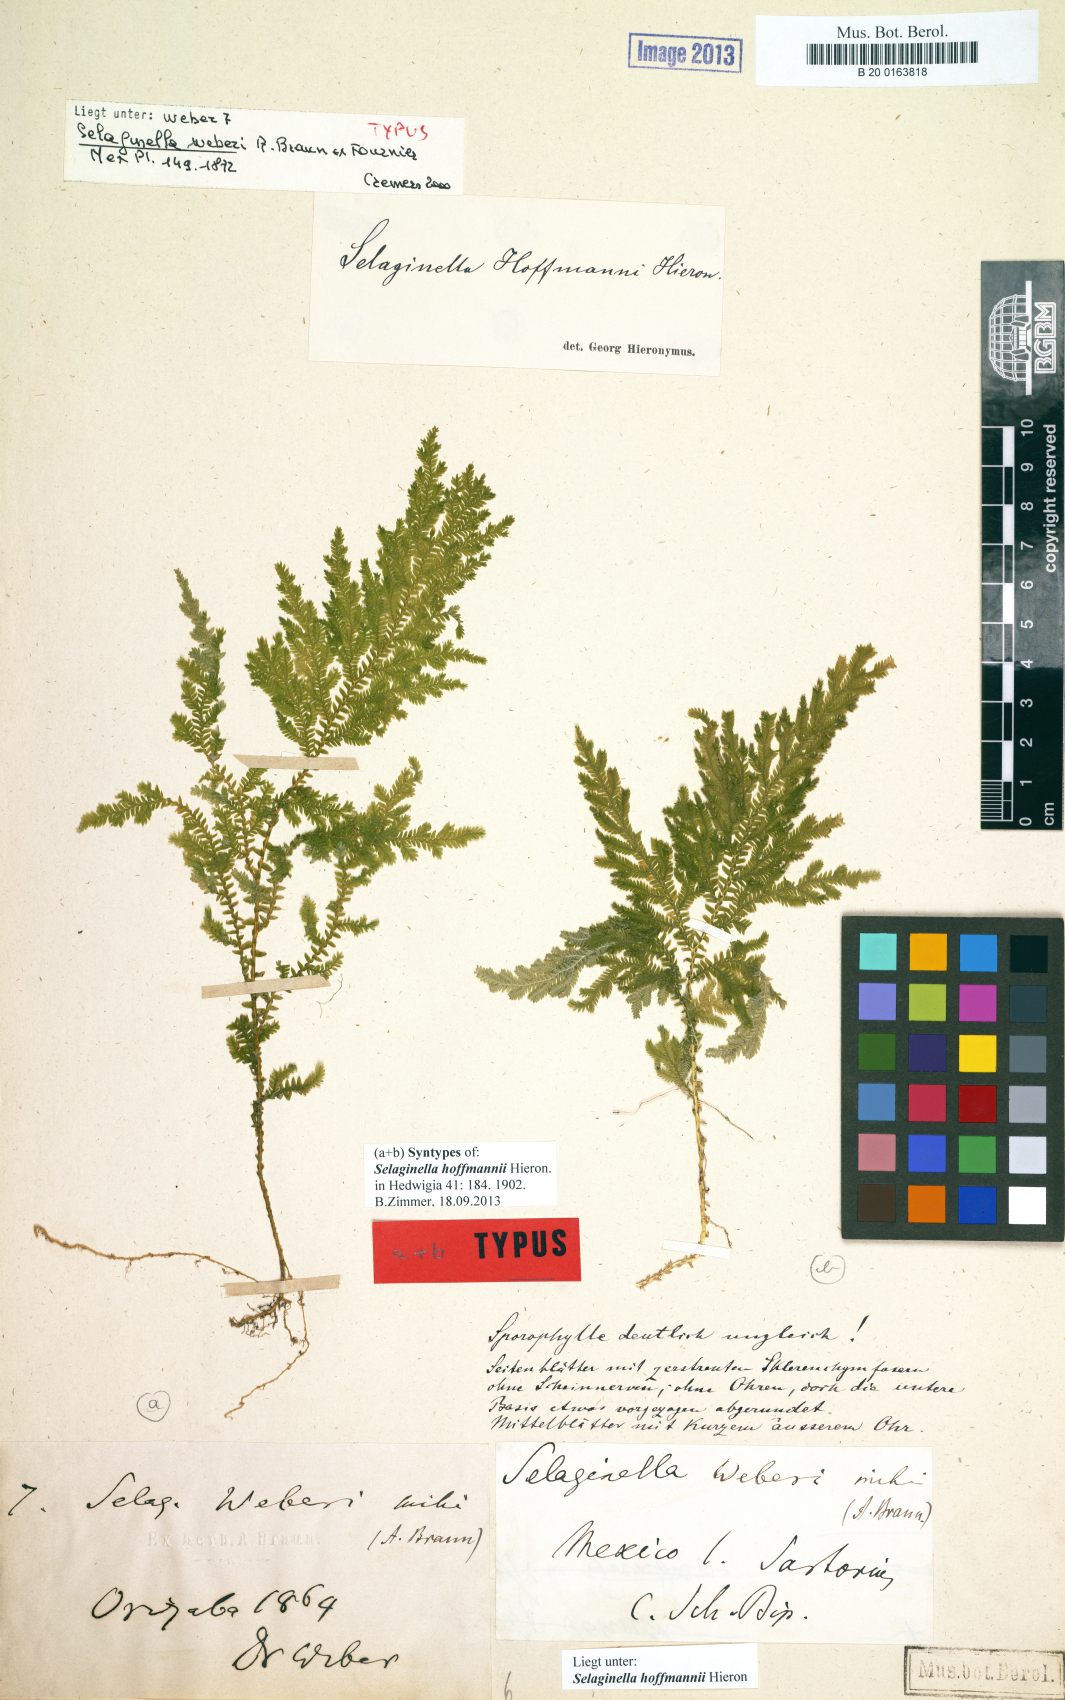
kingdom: Plantae
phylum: Tracheophyta
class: Lycopodiopsida
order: Selaginellales
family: Selaginellaceae
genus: Selaginella
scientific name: Selaginella hoffmannii
